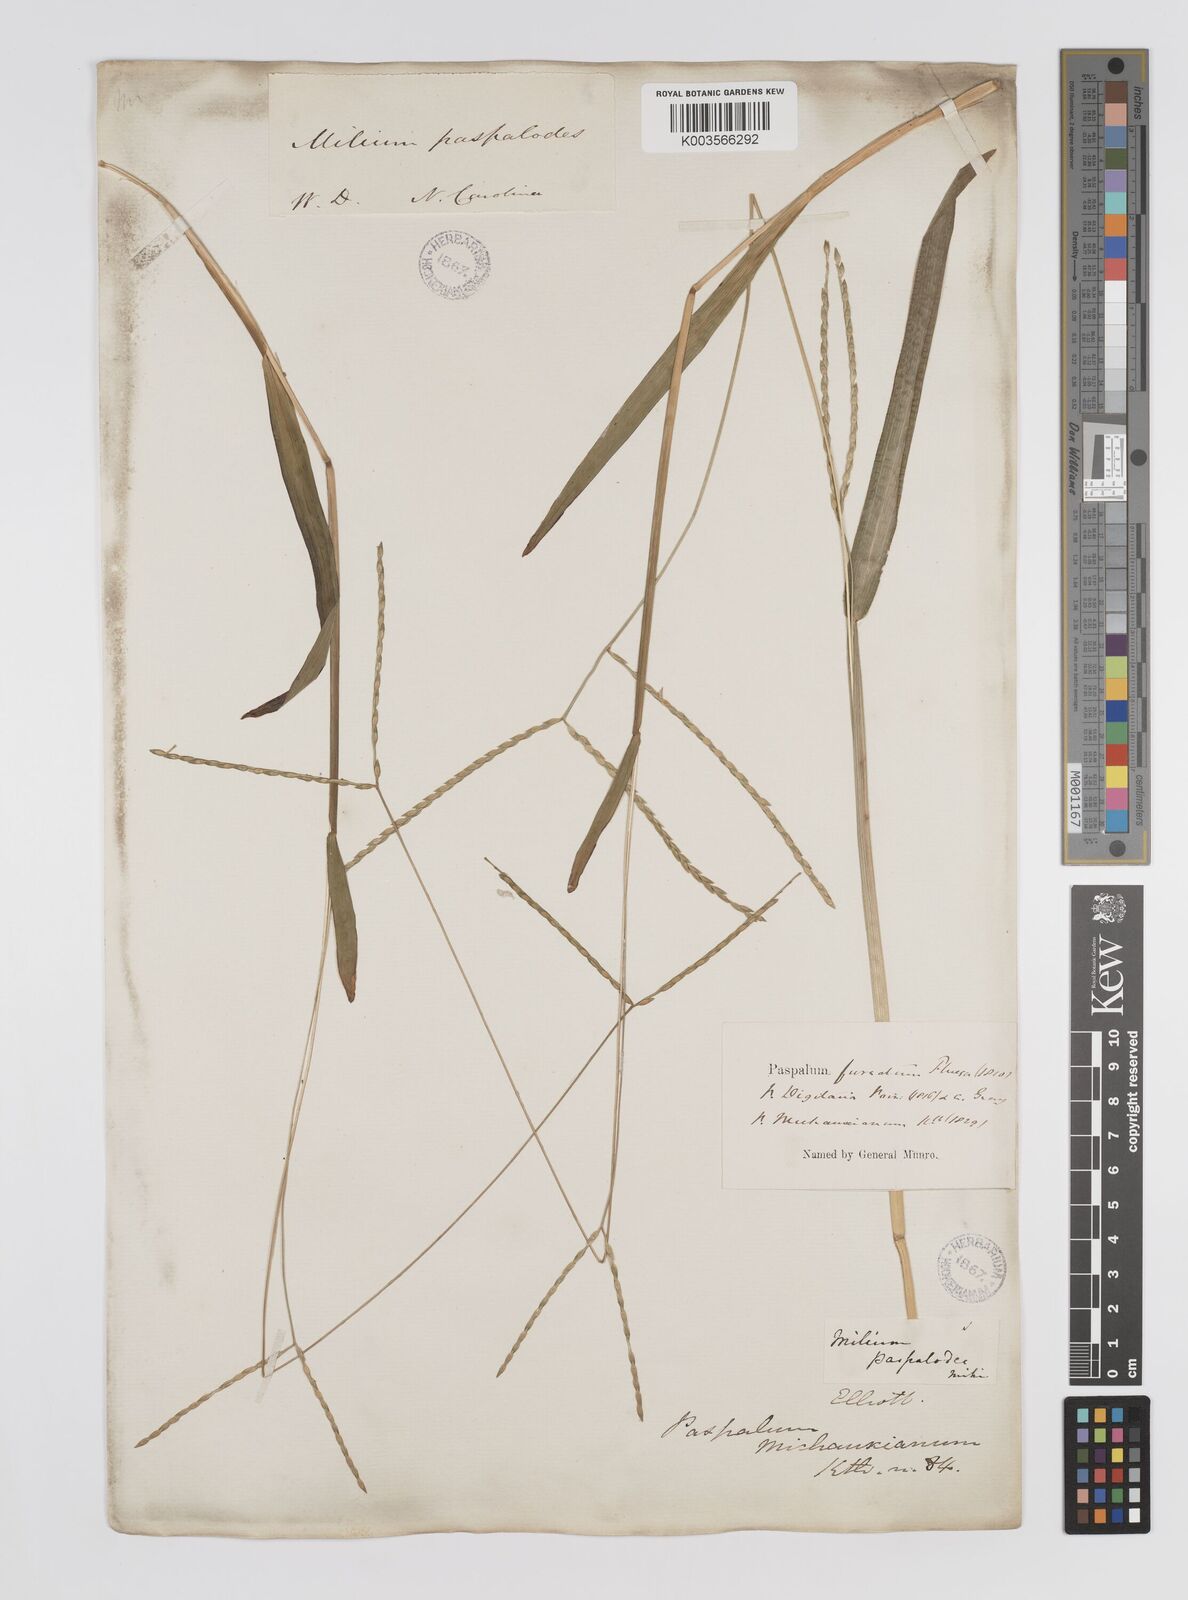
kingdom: Plantae
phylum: Tracheophyta
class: Liliopsida
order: Poales
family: Poaceae
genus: Axonopus
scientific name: Axonopus furcatus
